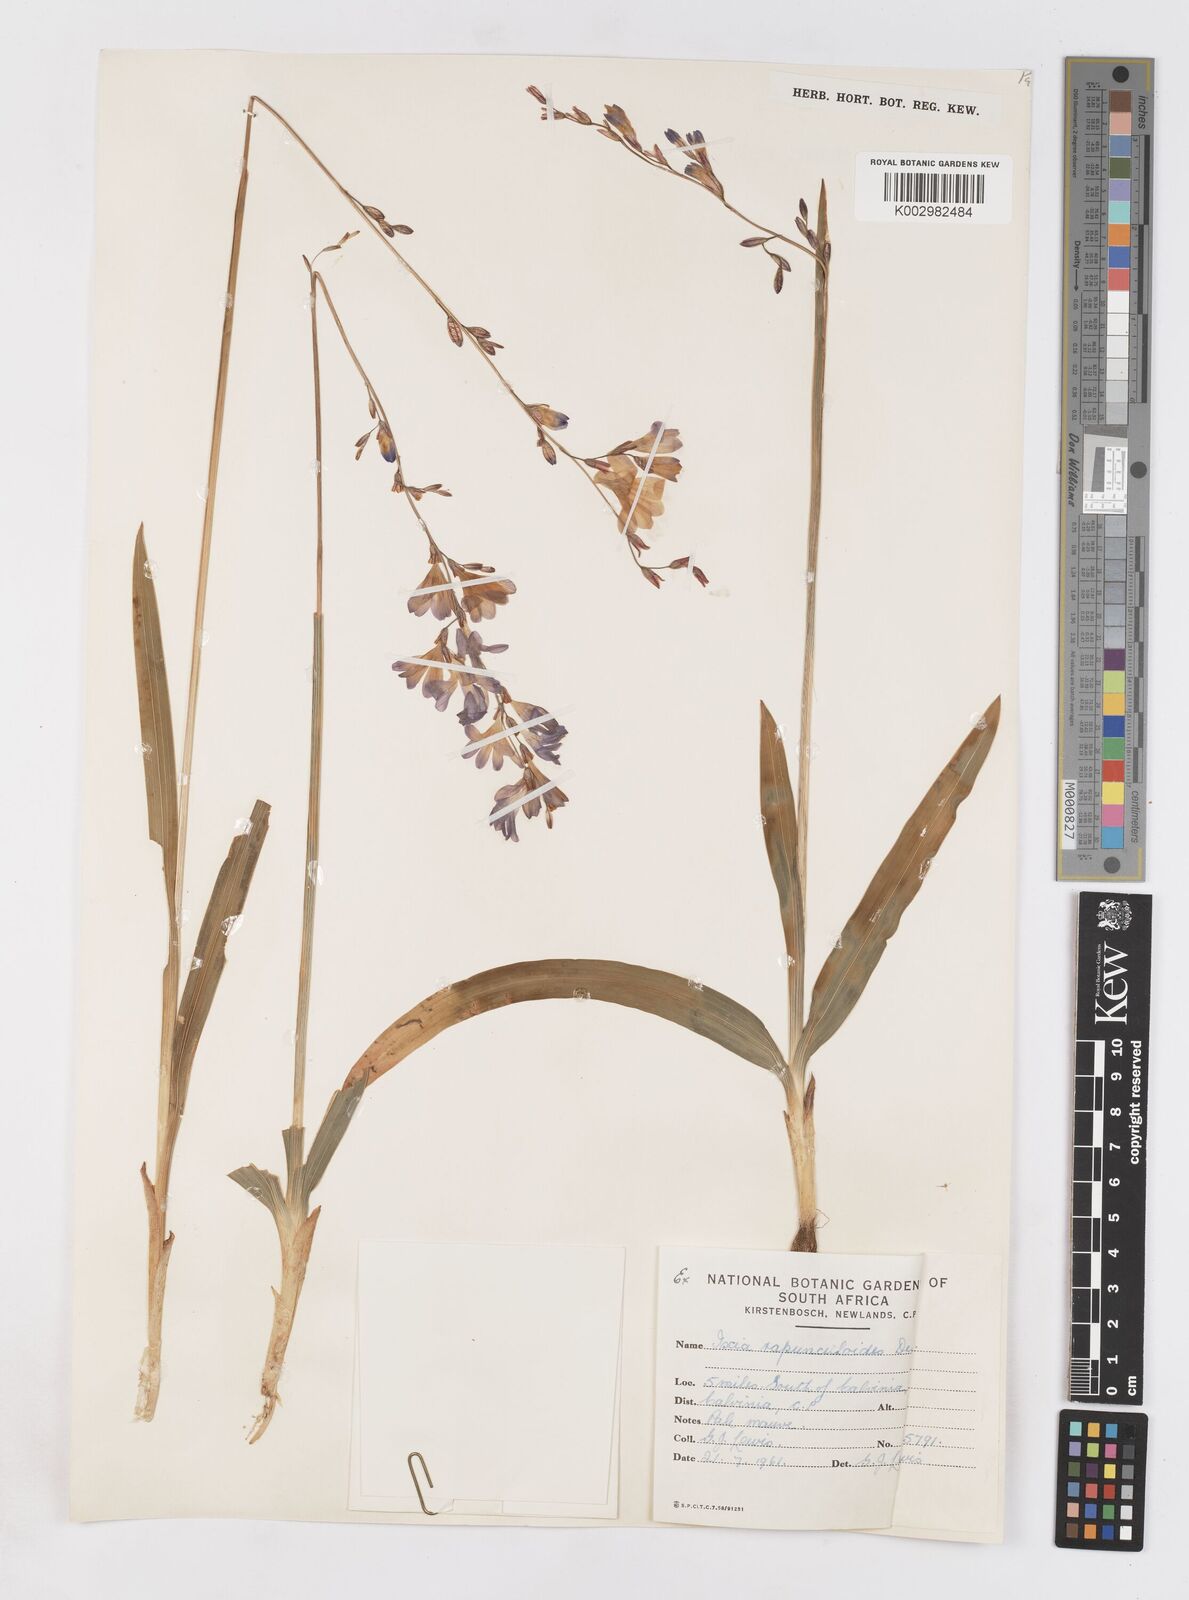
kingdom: Plantae
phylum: Tracheophyta
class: Liliopsida
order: Asparagales
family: Iridaceae
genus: Ixia
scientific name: Ixia rapunculoides
